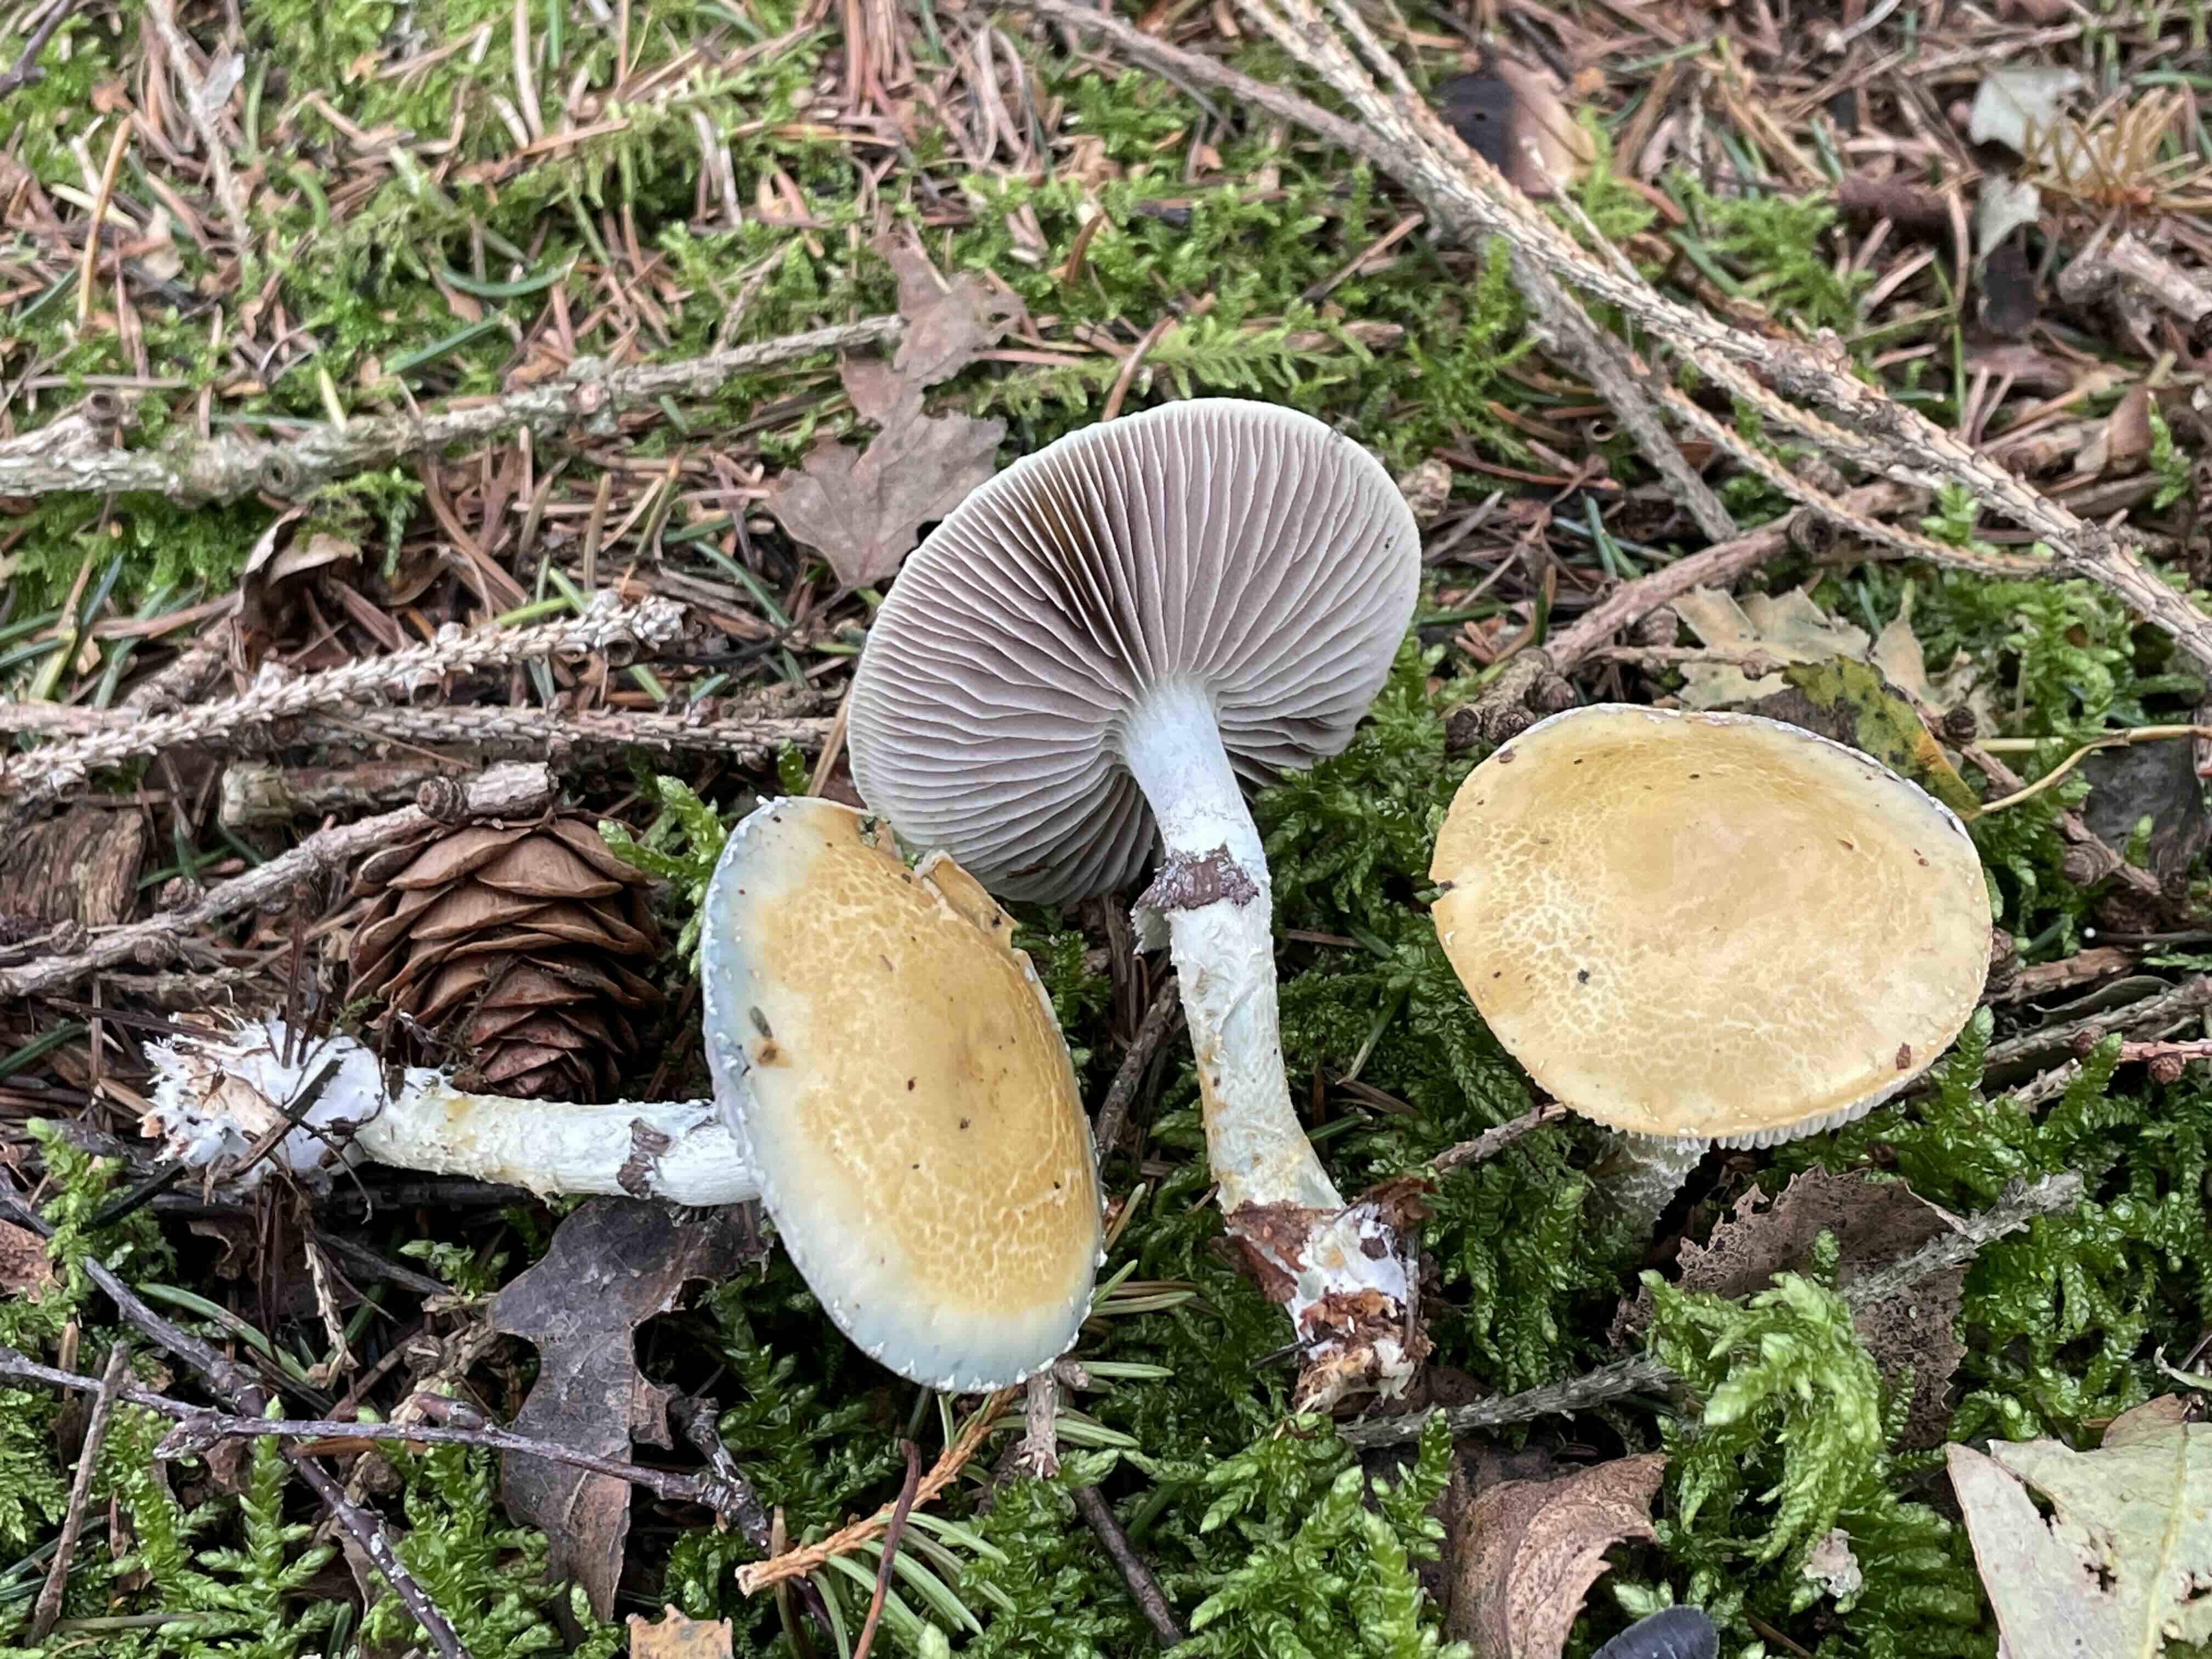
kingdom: Fungi
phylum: Basidiomycota
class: Agaricomycetes
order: Agaricales
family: Strophariaceae
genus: Stropharia
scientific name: Stropharia aeruginosa
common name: spanskgrøn bredblad
